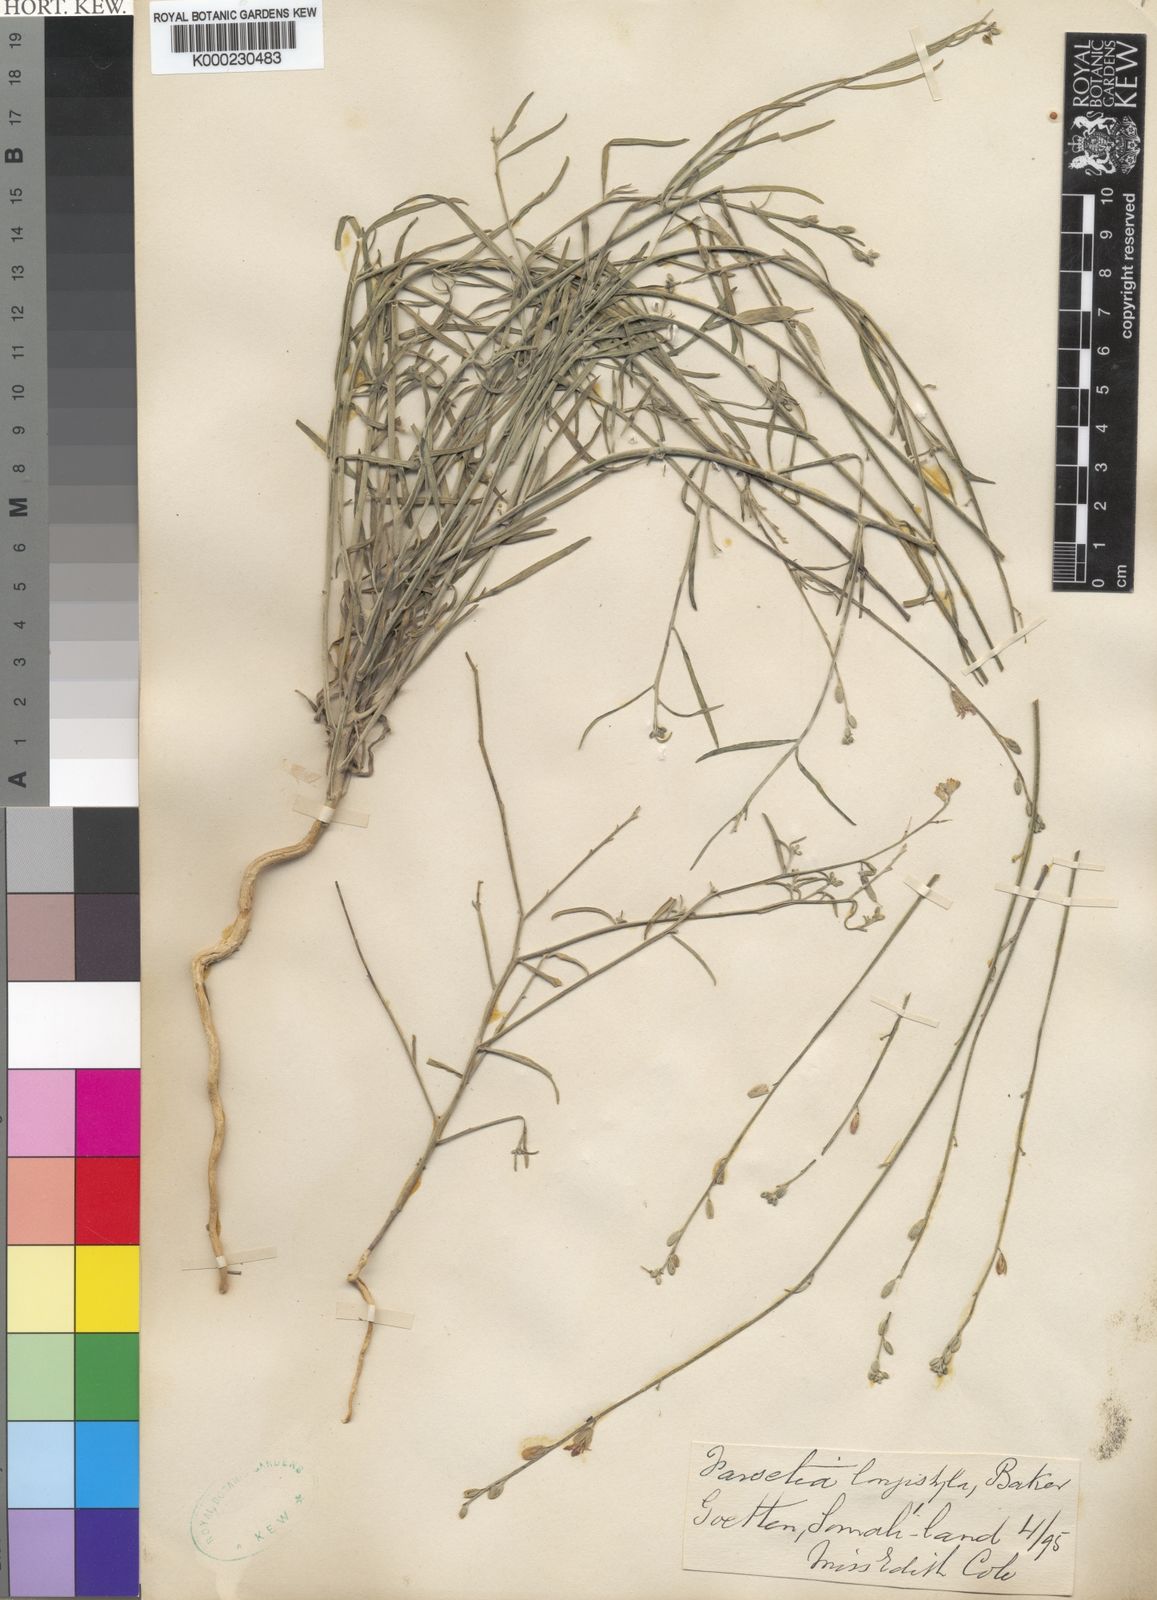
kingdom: Plantae
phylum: Tracheophyta
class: Magnoliopsida
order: Brassicales
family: Brassicaceae
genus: Farsetia
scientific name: Farsetia longistyla
